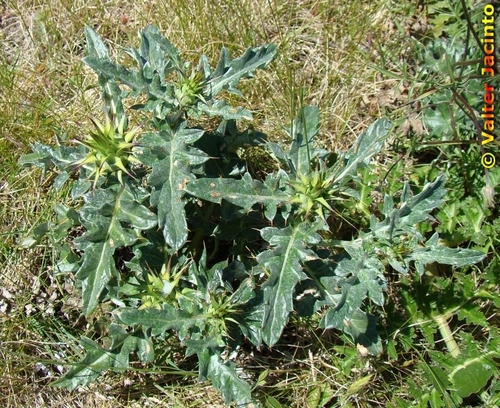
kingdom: Plantae
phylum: Tracheophyta
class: Magnoliopsida
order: Asterales
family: Asteraceae
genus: Cynara
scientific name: Cynara algarbiensis
